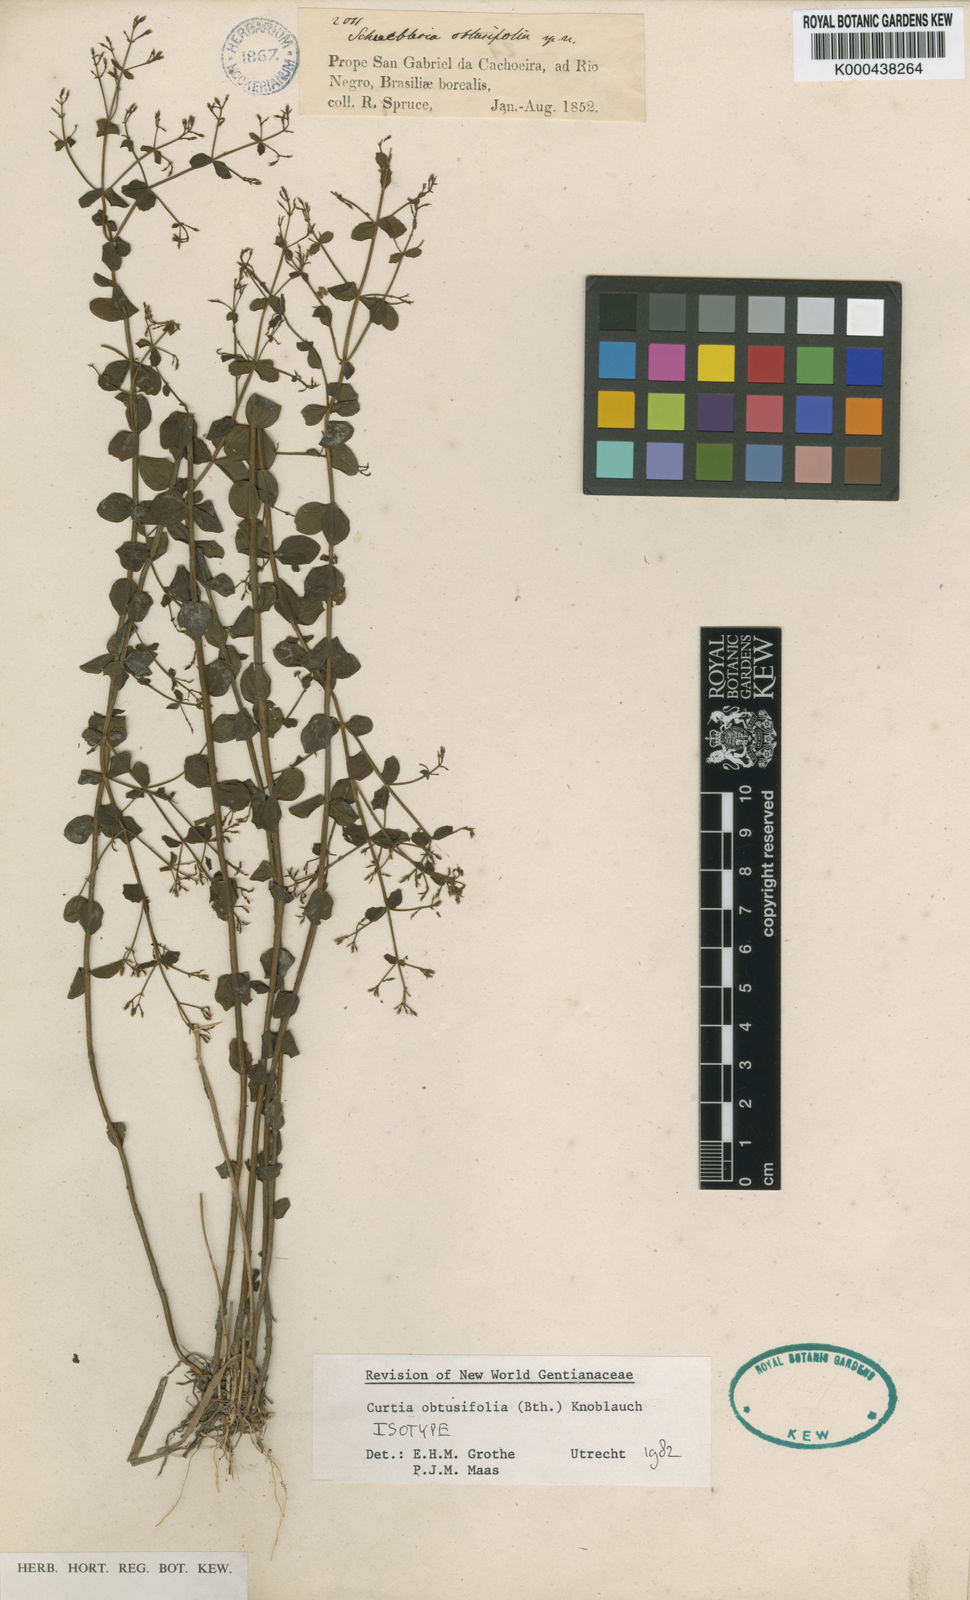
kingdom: Plantae
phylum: Tracheophyta
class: Magnoliopsida
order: Gentianales
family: Gentianaceae
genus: Curtia
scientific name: Curtia obtusifolia
